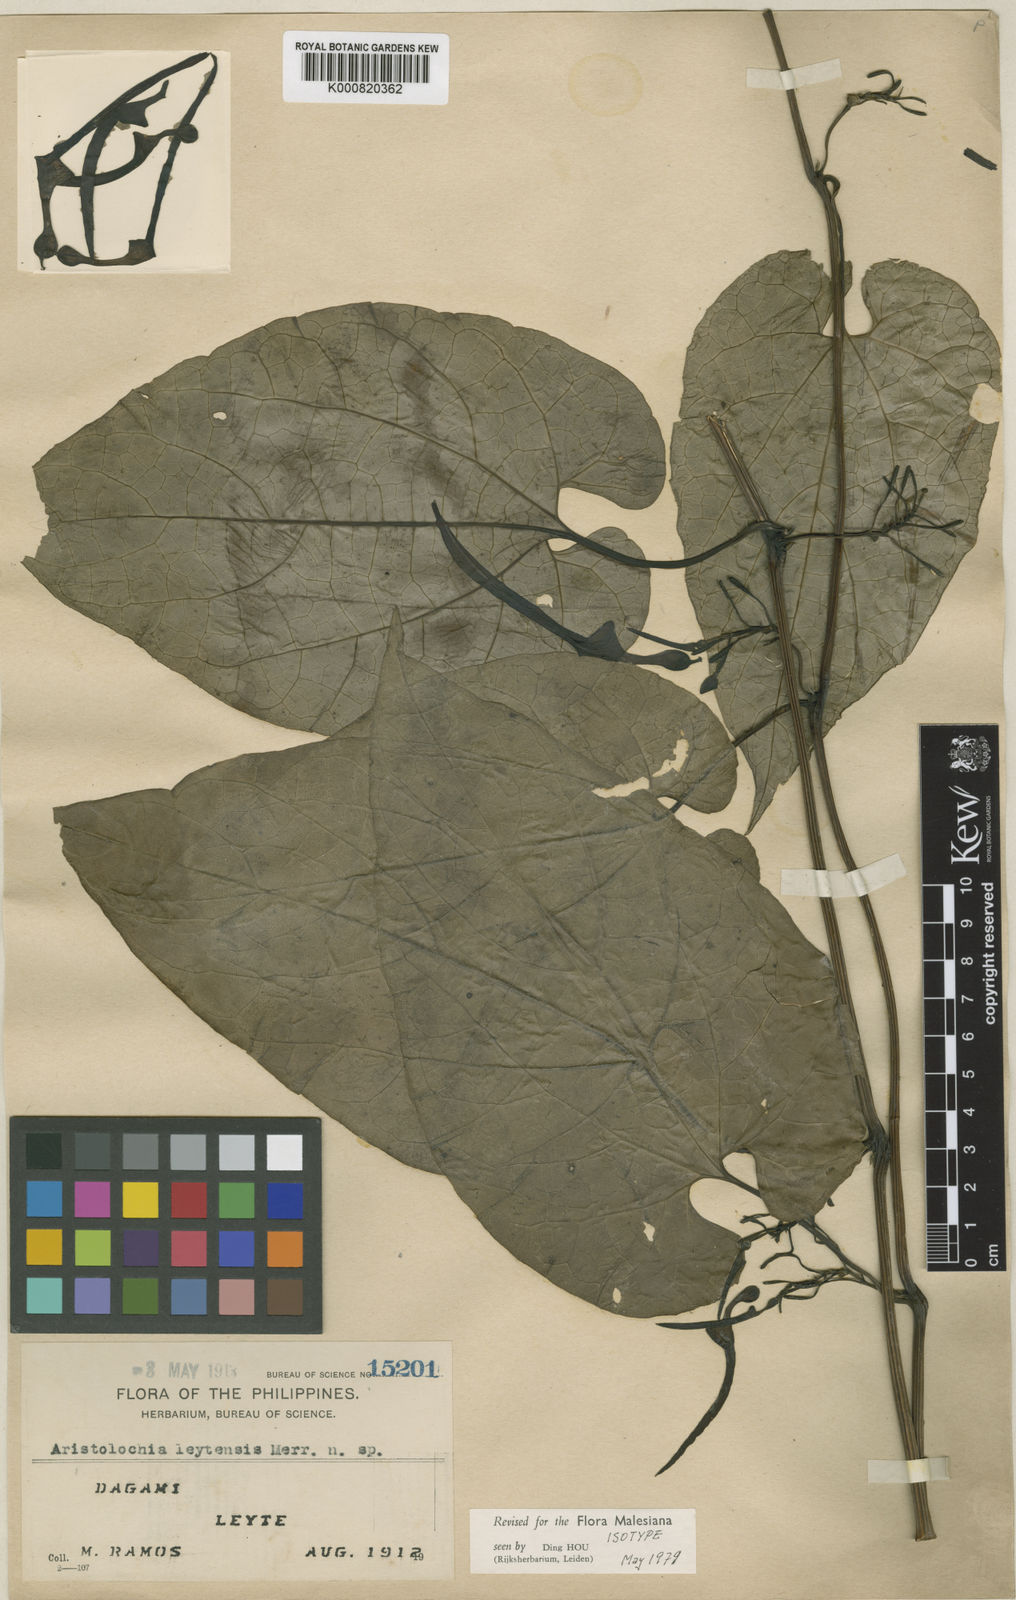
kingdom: Plantae
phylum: Tracheophyta
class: Magnoliopsida
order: Piperales
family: Aristolochiaceae
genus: Aristolochia
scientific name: Aristolochia leytensis
